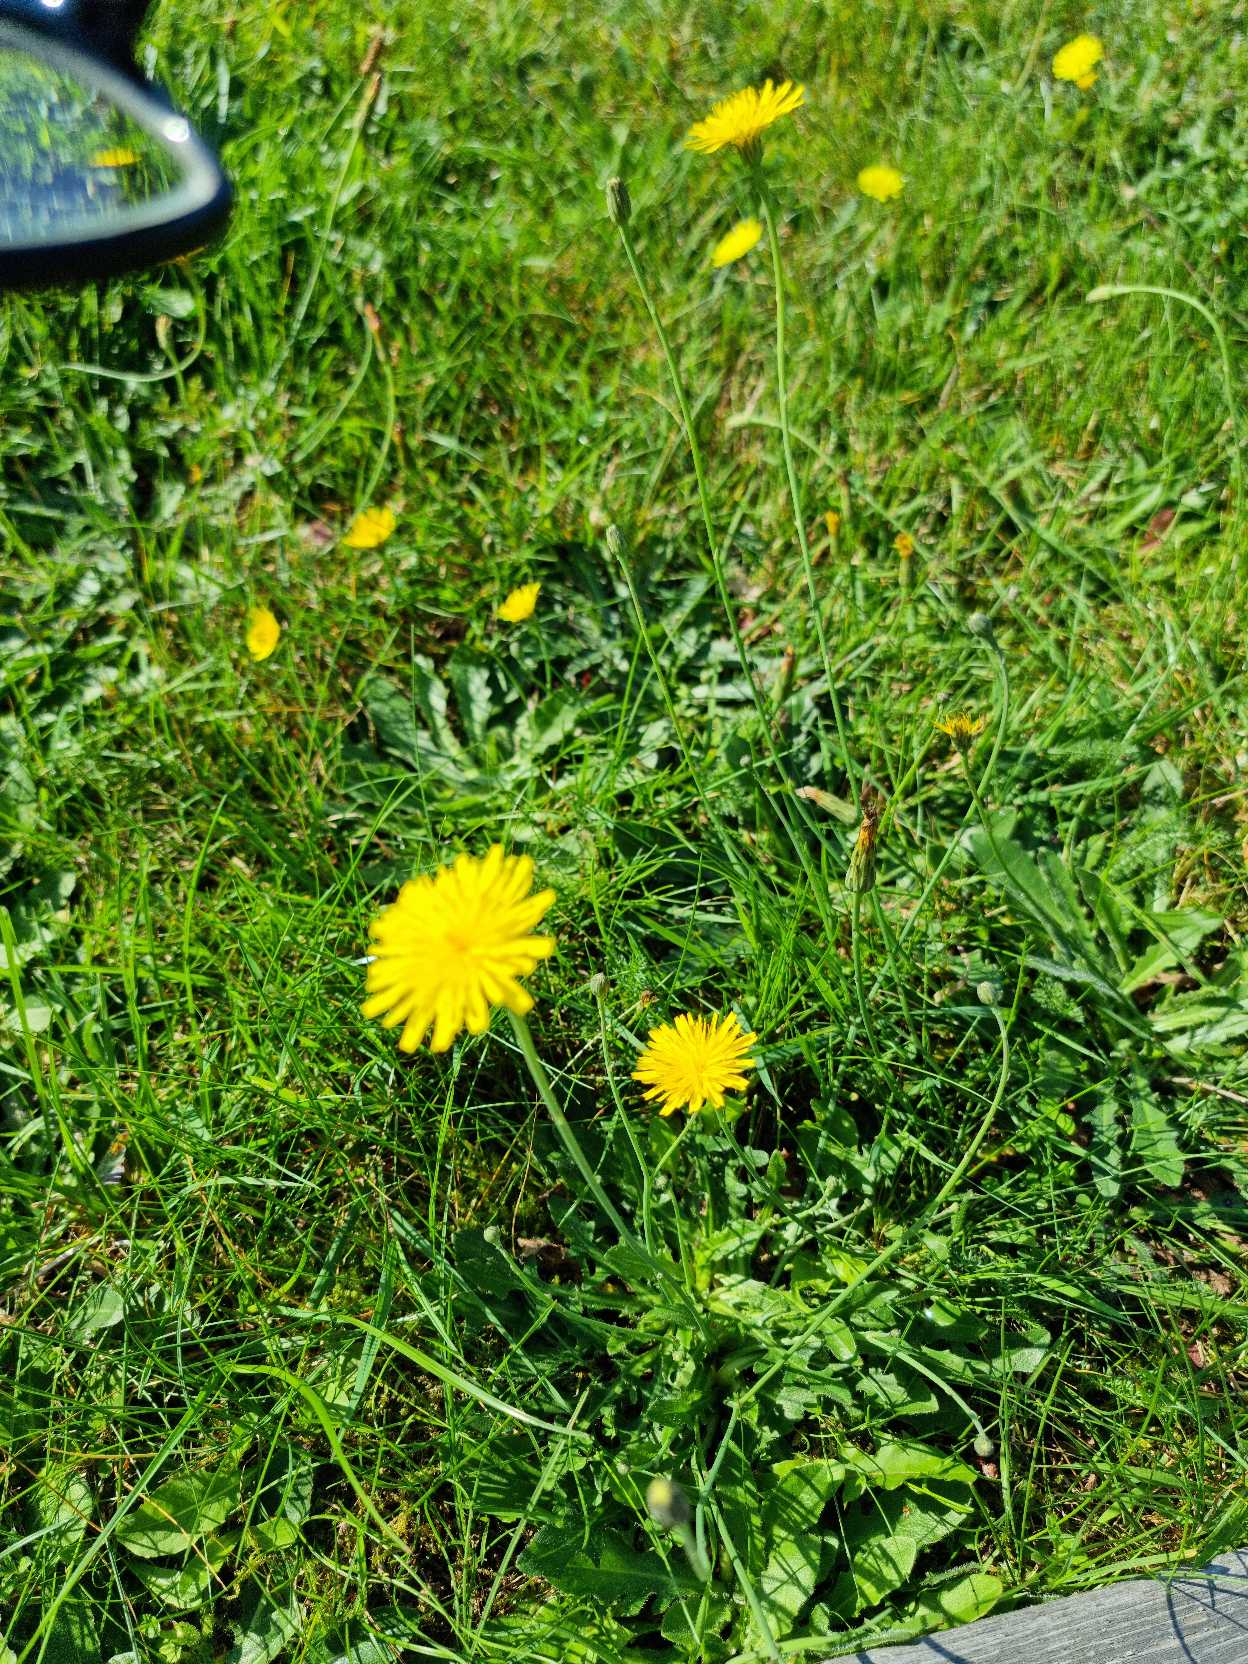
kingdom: Plantae
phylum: Tracheophyta
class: Magnoliopsida
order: Asterales
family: Asteraceae
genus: Hypochaeris
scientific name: Hypochaeris radicata
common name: Almindelig kongepen
